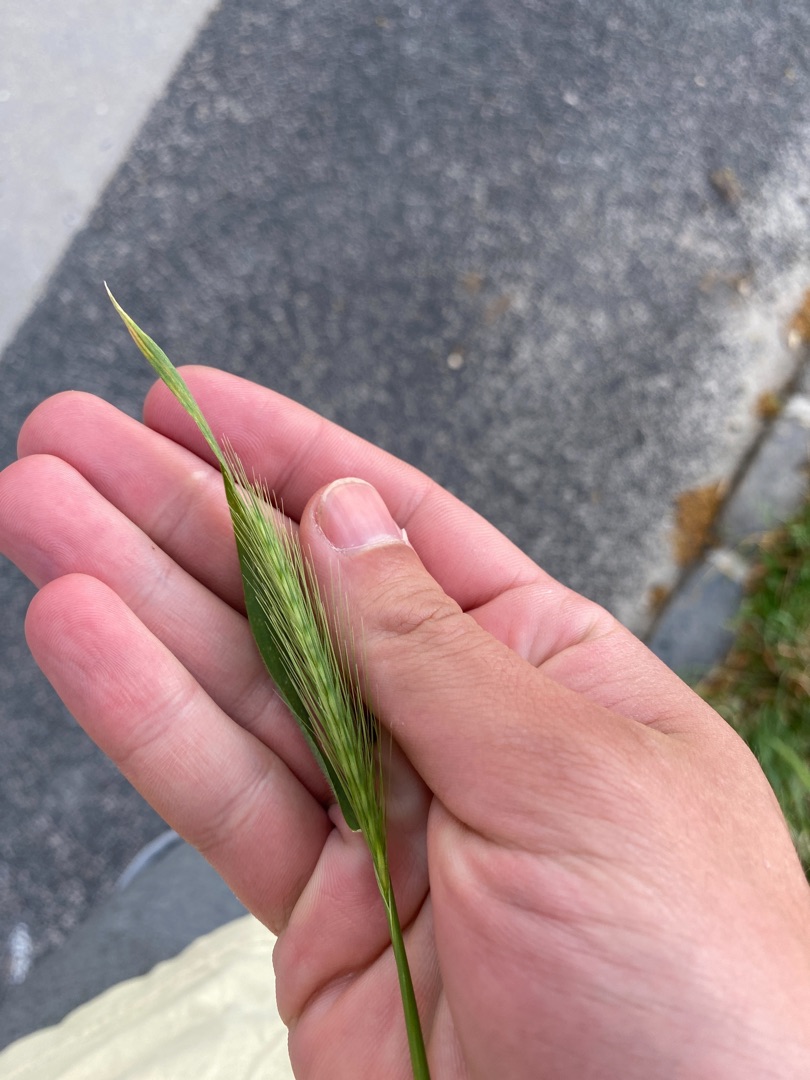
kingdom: Plantae
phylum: Tracheophyta
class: Liliopsida
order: Poales
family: Poaceae
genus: Hordeum
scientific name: Hordeum murinum
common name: Gold byg
